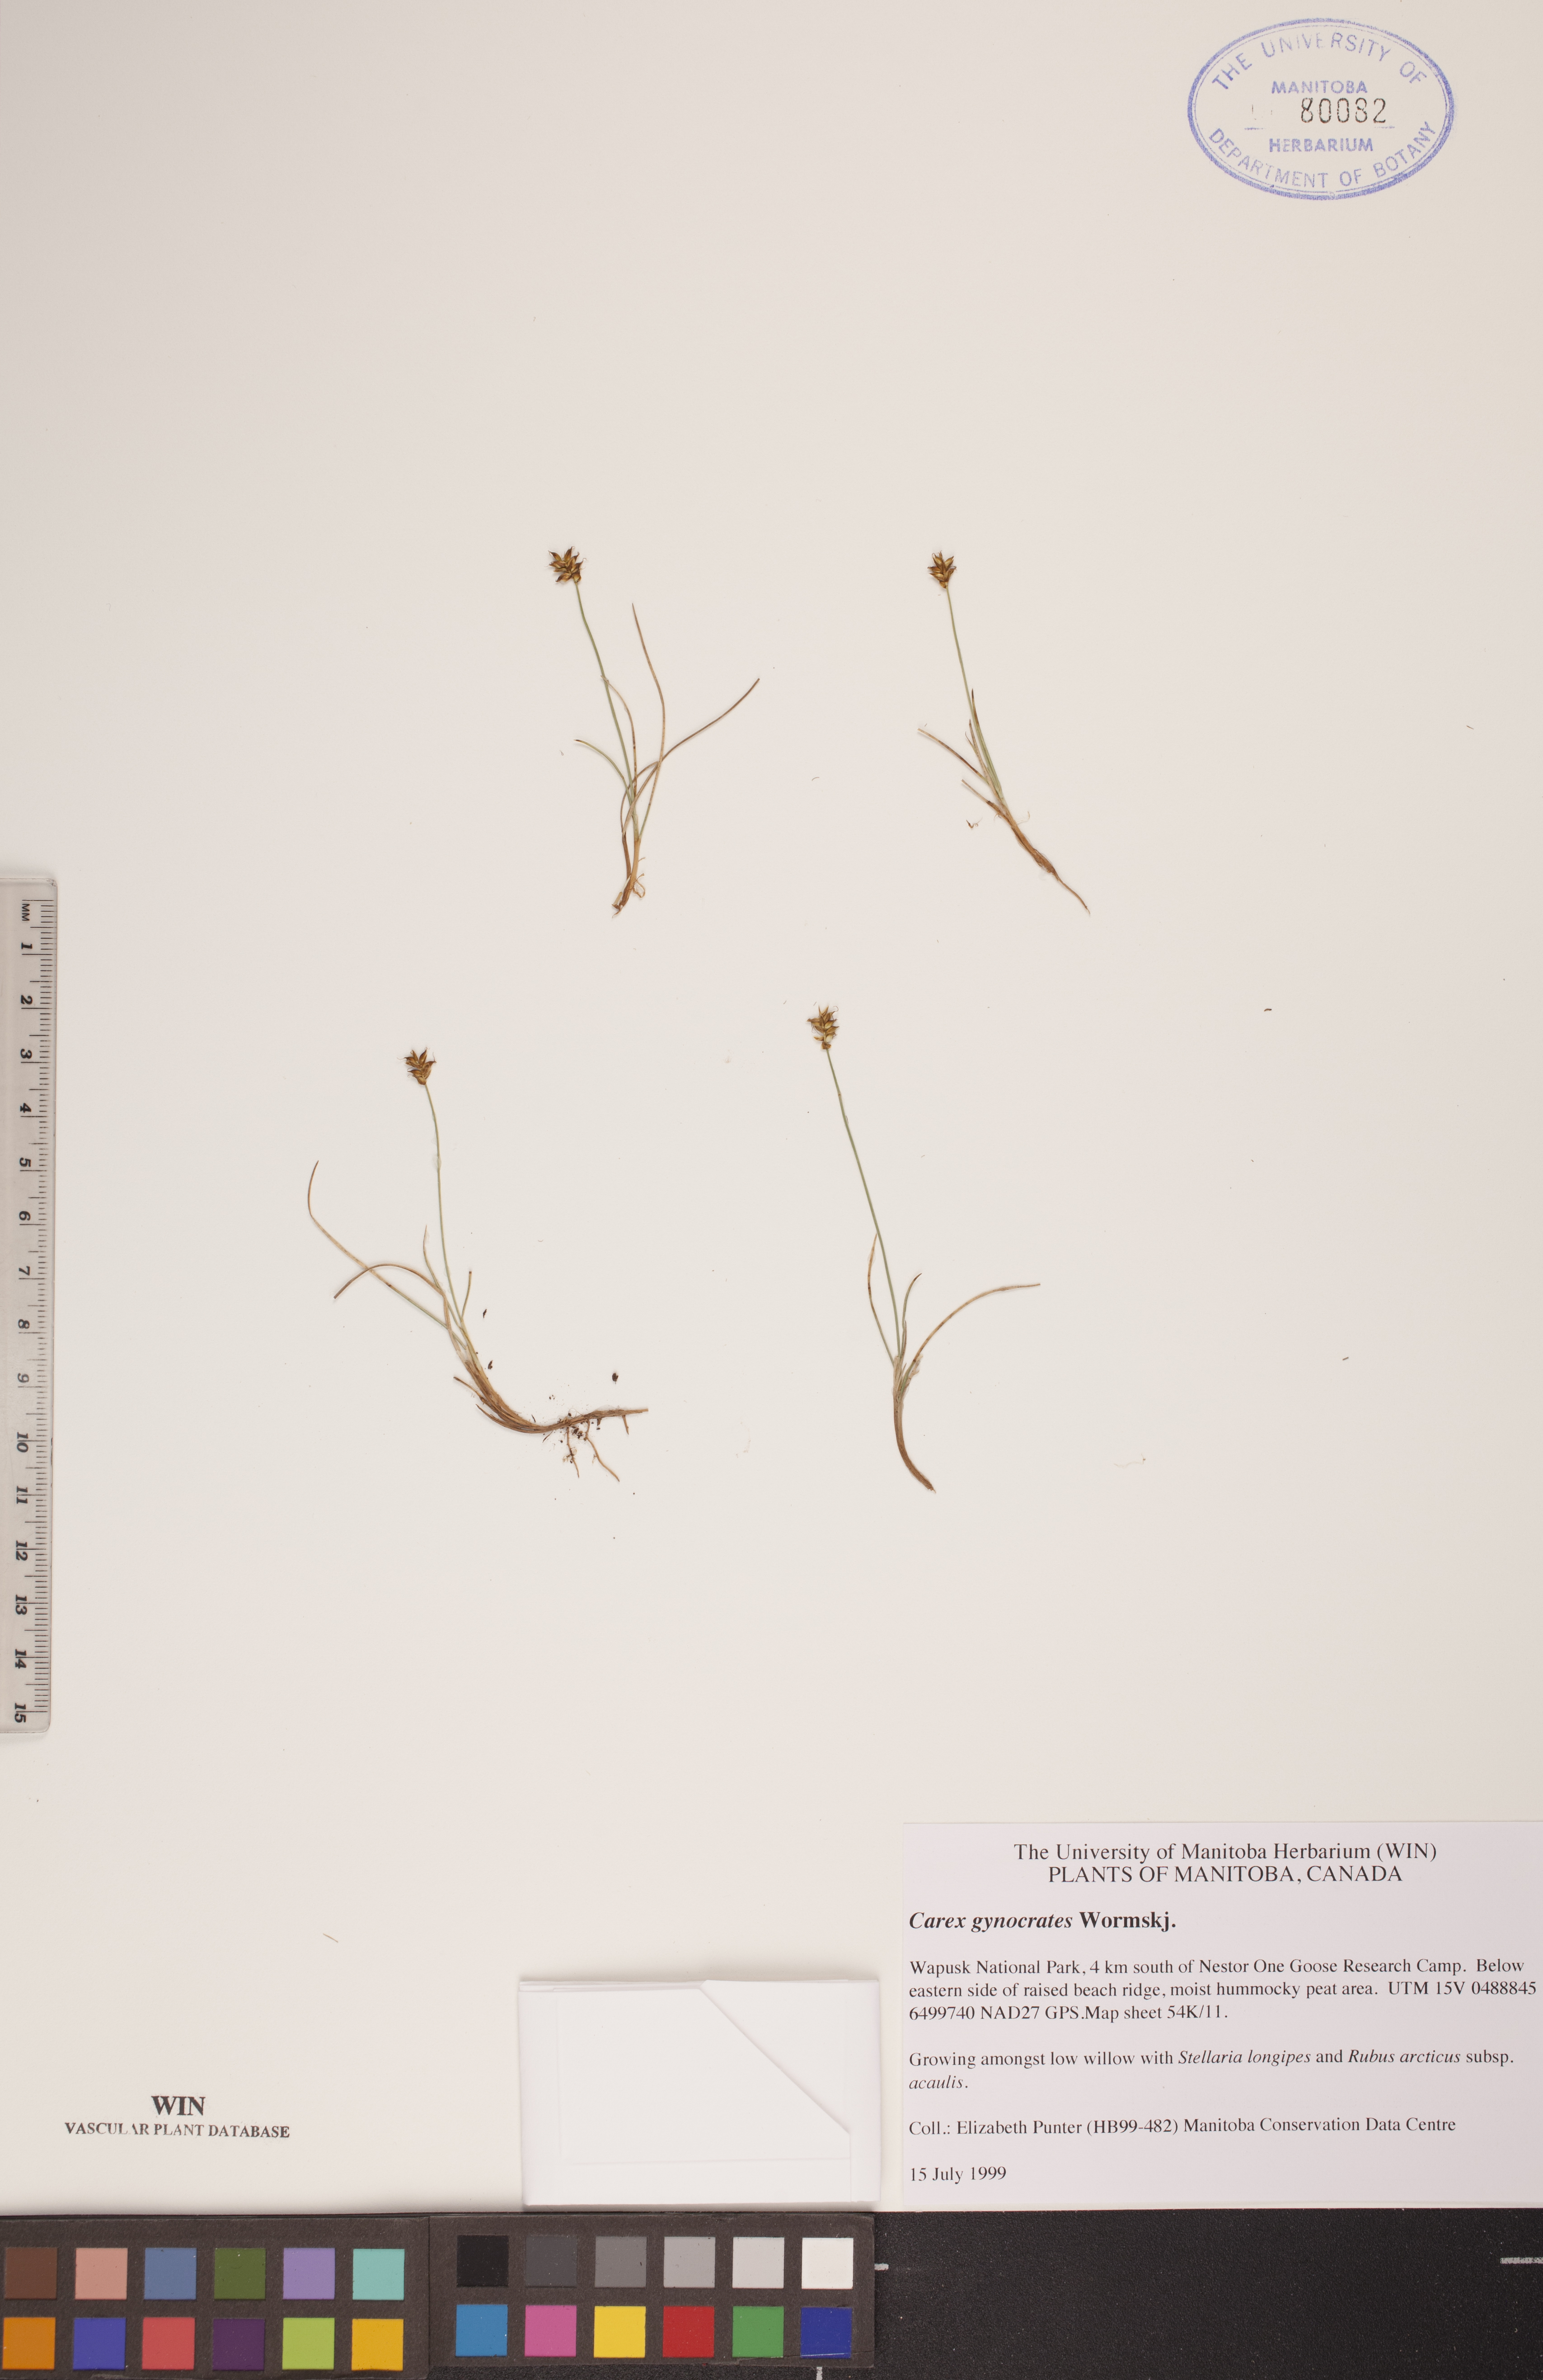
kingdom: Plantae
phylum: Tracheophyta
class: Liliopsida
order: Poales
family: Cyperaceae
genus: Carex
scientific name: Carex nardina
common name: Nard sedge
